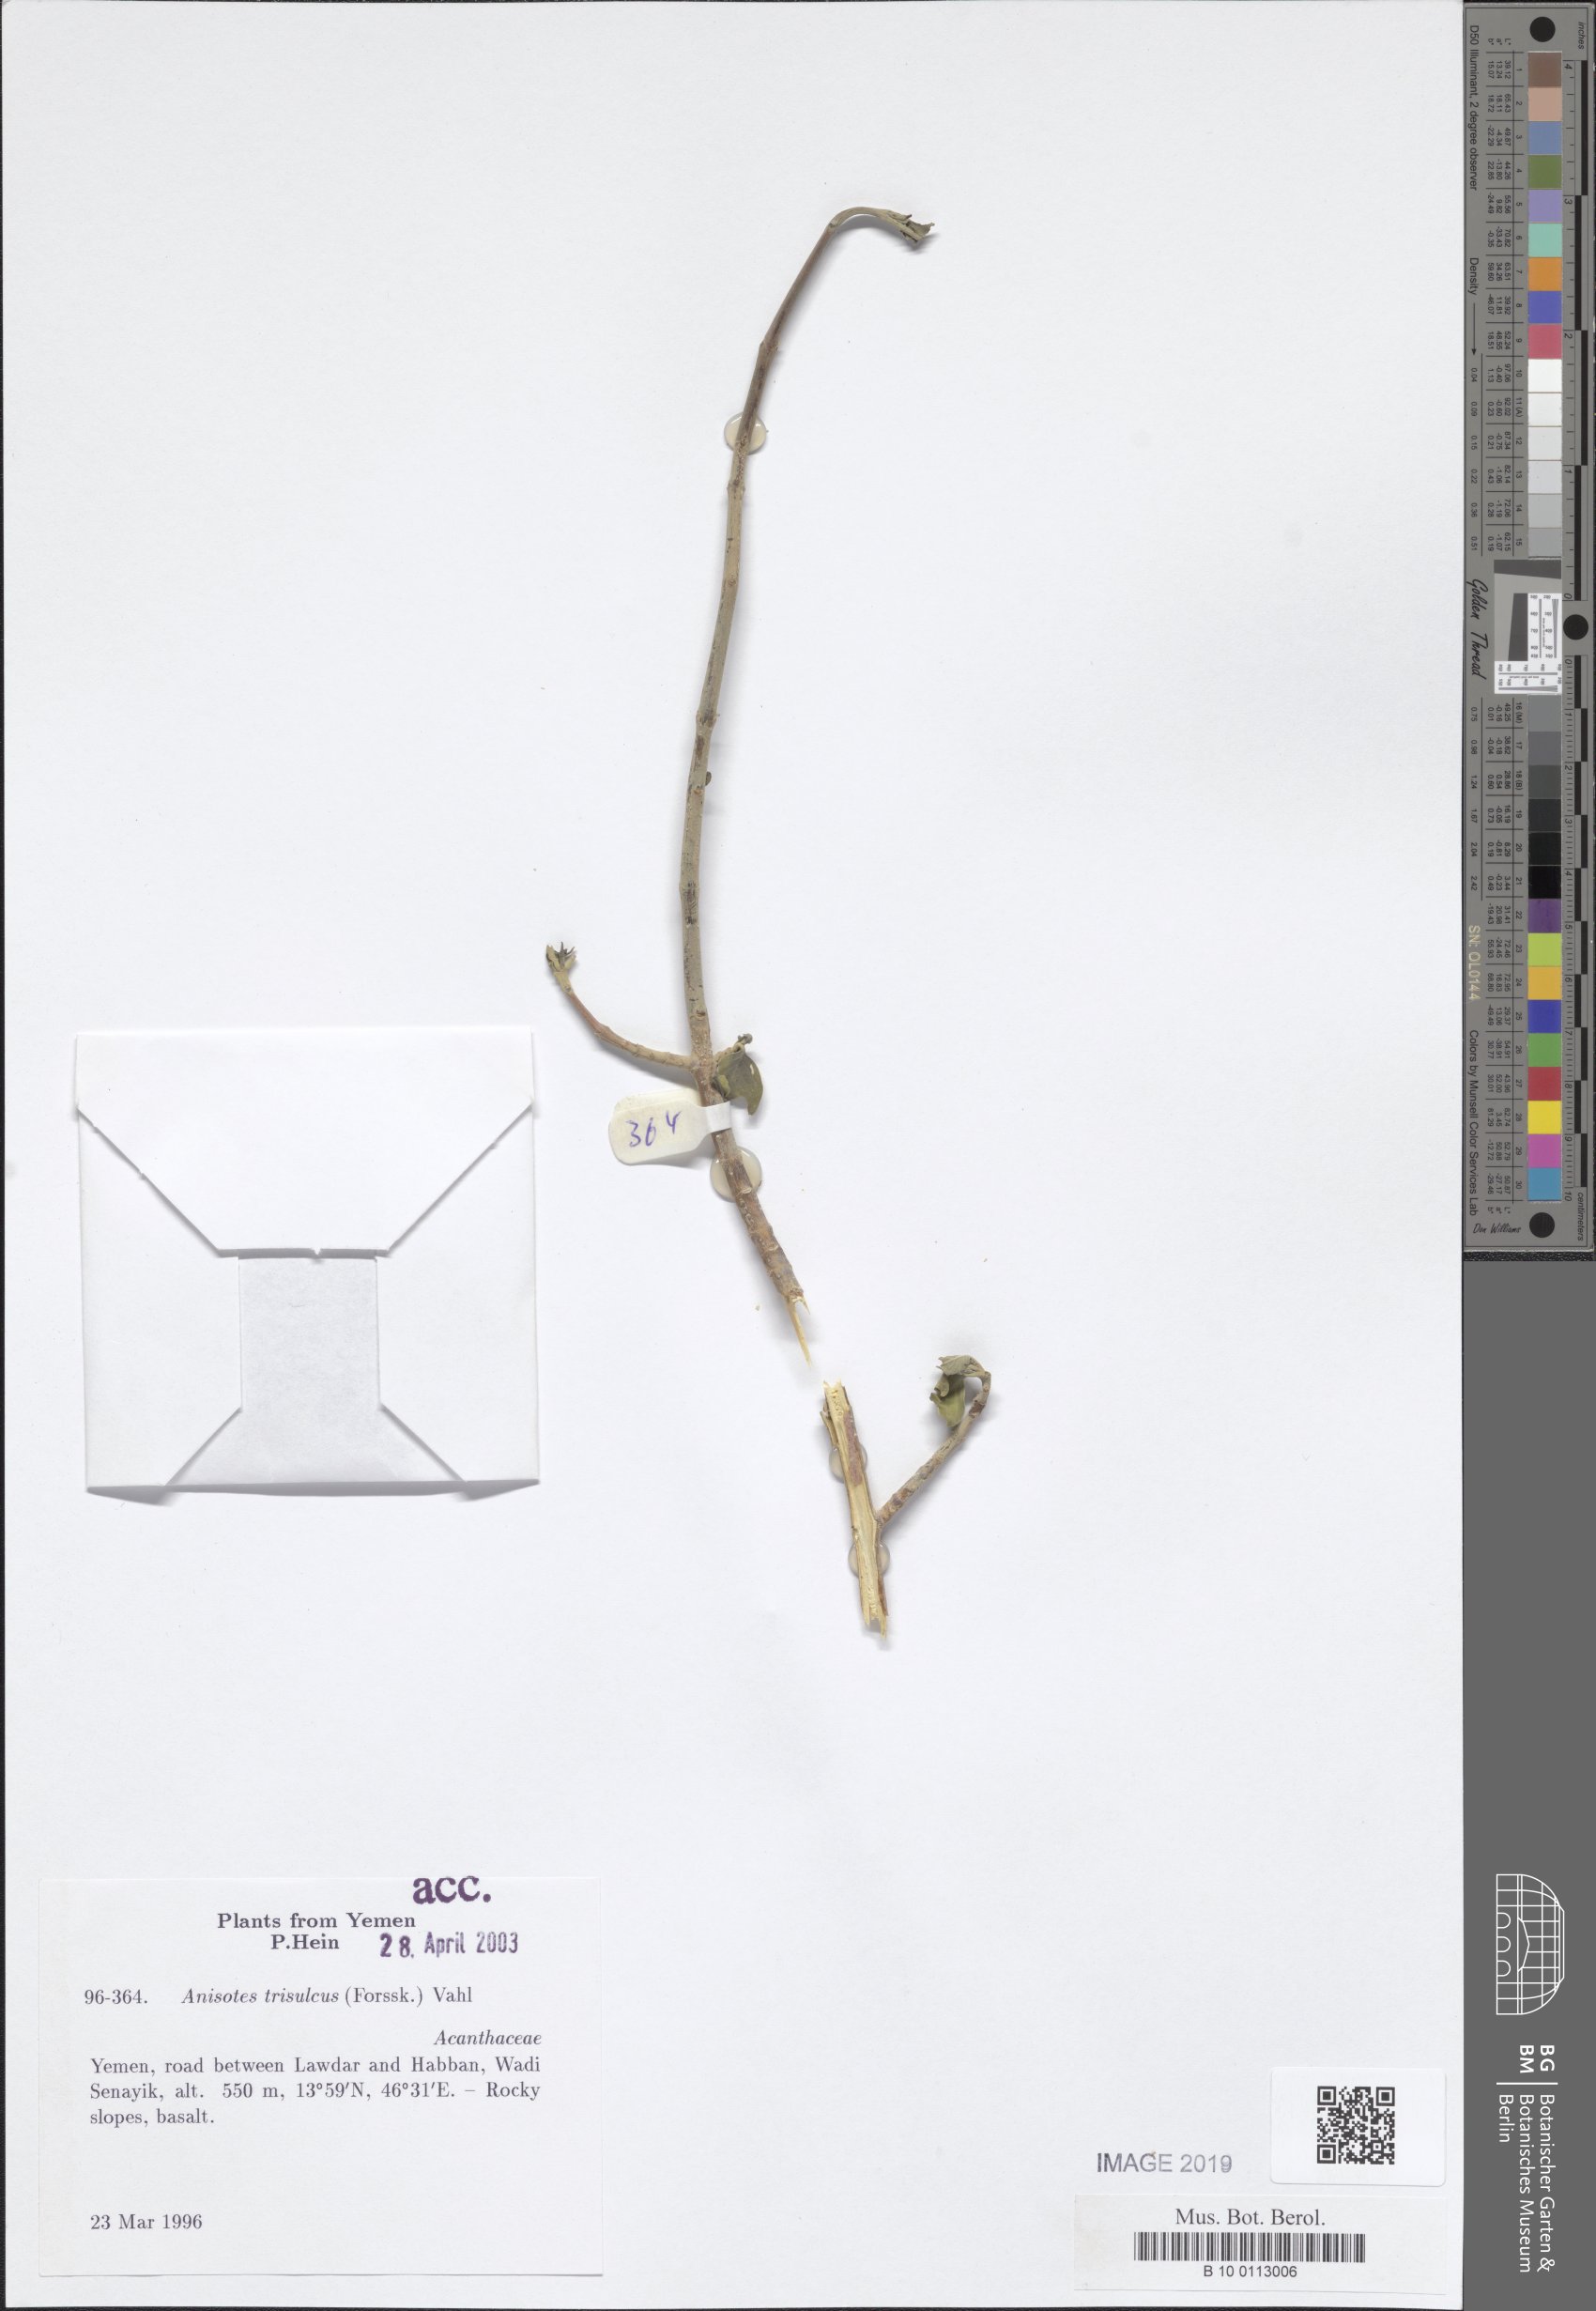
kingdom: Plantae
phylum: Tracheophyta
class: Magnoliopsida
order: Lamiales
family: Acanthaceae
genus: Anisotes
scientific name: Anisotes trisulcus
